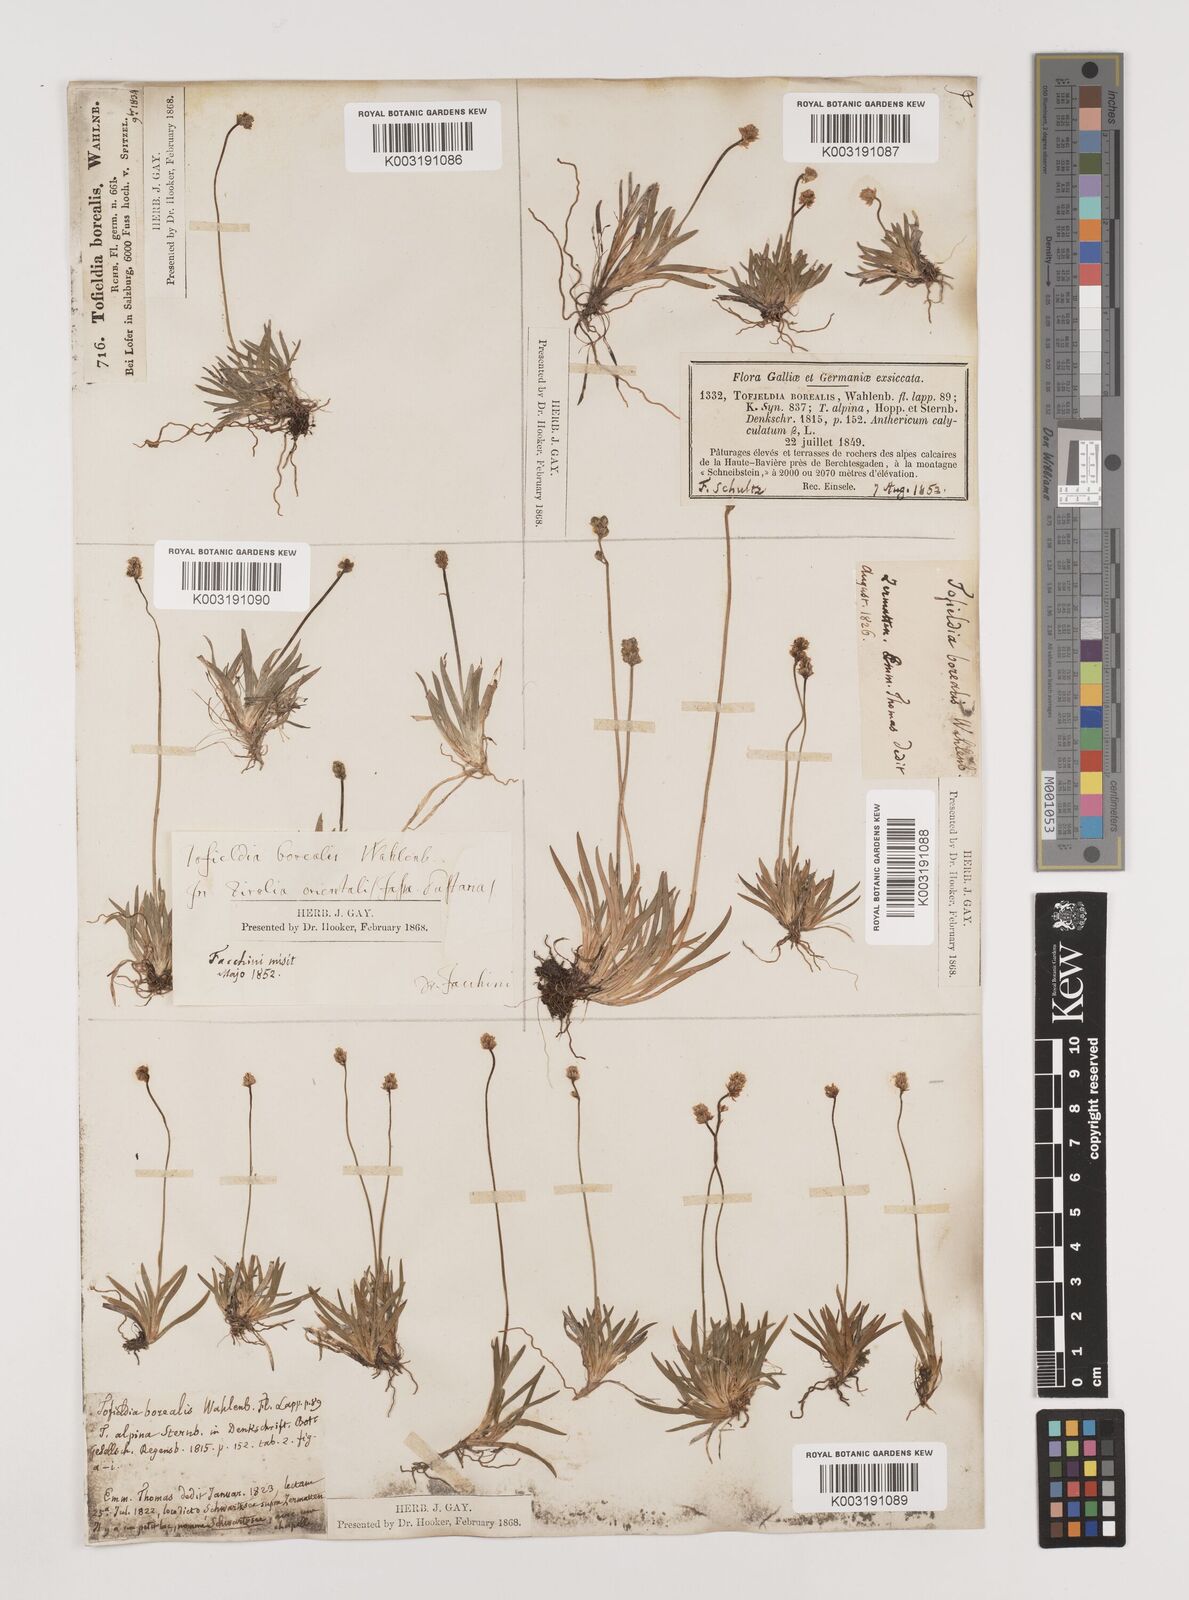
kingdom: Plantae
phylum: Tracheophyta
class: Liliopsida
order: Alismatales
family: Tofieldiaceae
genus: Tofieldia
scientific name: Tofieldia pusilla
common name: Scottish false asphodel
